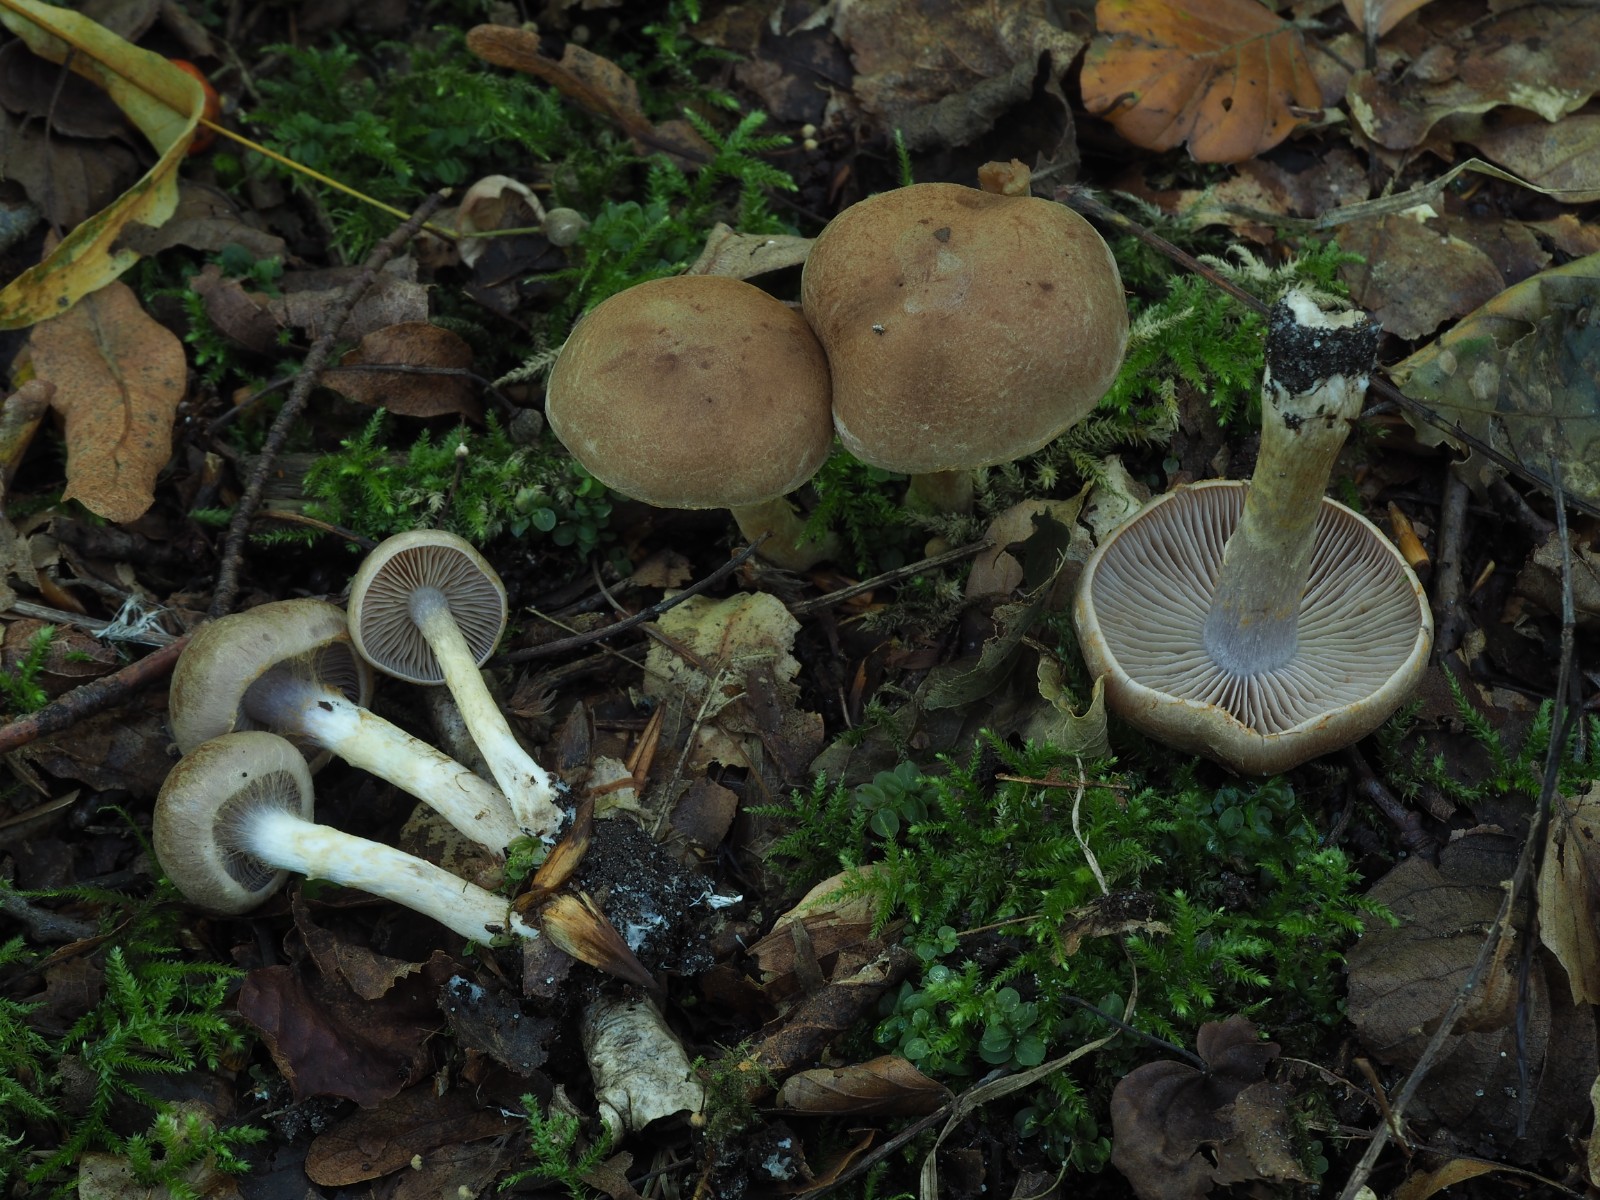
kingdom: Fungi
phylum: Basidiomycota
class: Agaricomycetes
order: Agaricales
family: Cortinariaceae
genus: Cortinarius
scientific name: Cortinarius anomalus
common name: Variable webcap
